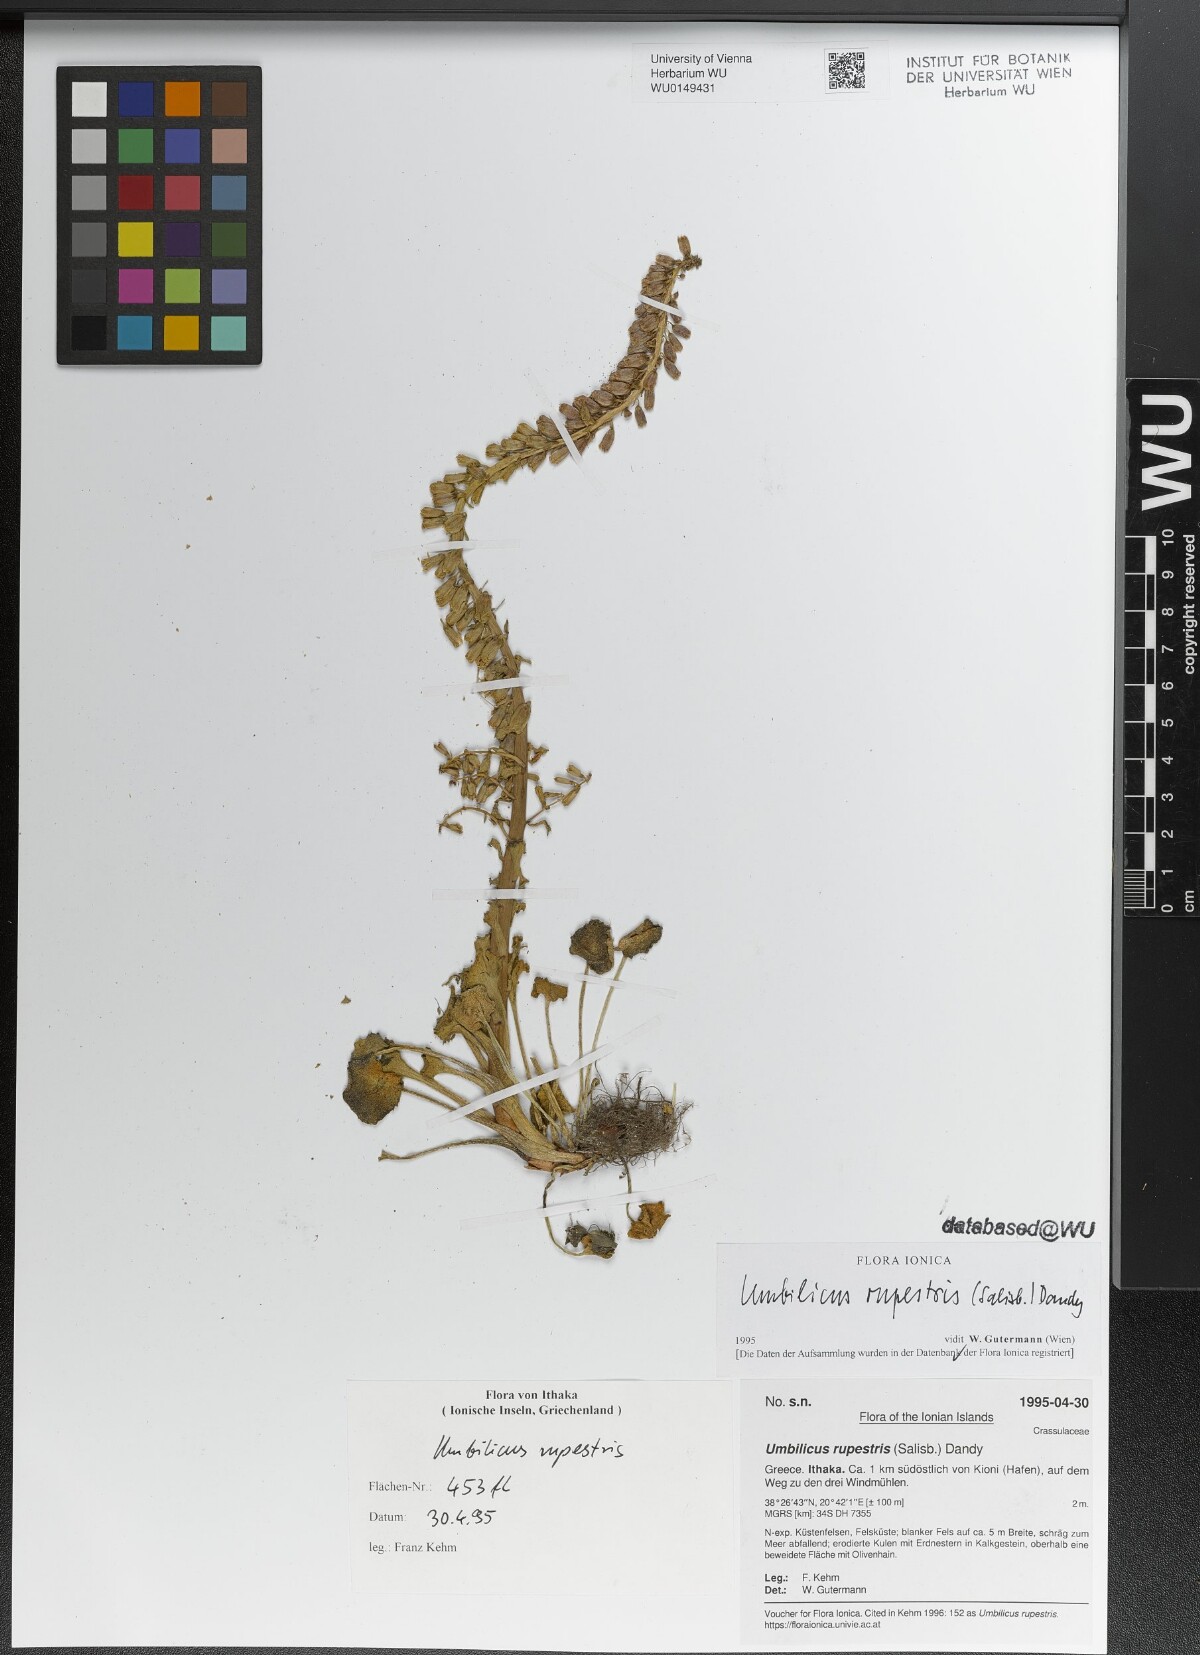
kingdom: Plantae
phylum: Tracheophyta
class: Magnoliopsida
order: Saxifragales
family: Crassulaceae
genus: Umbilicus
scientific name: Umbilicus rupestris
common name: Navelwort
